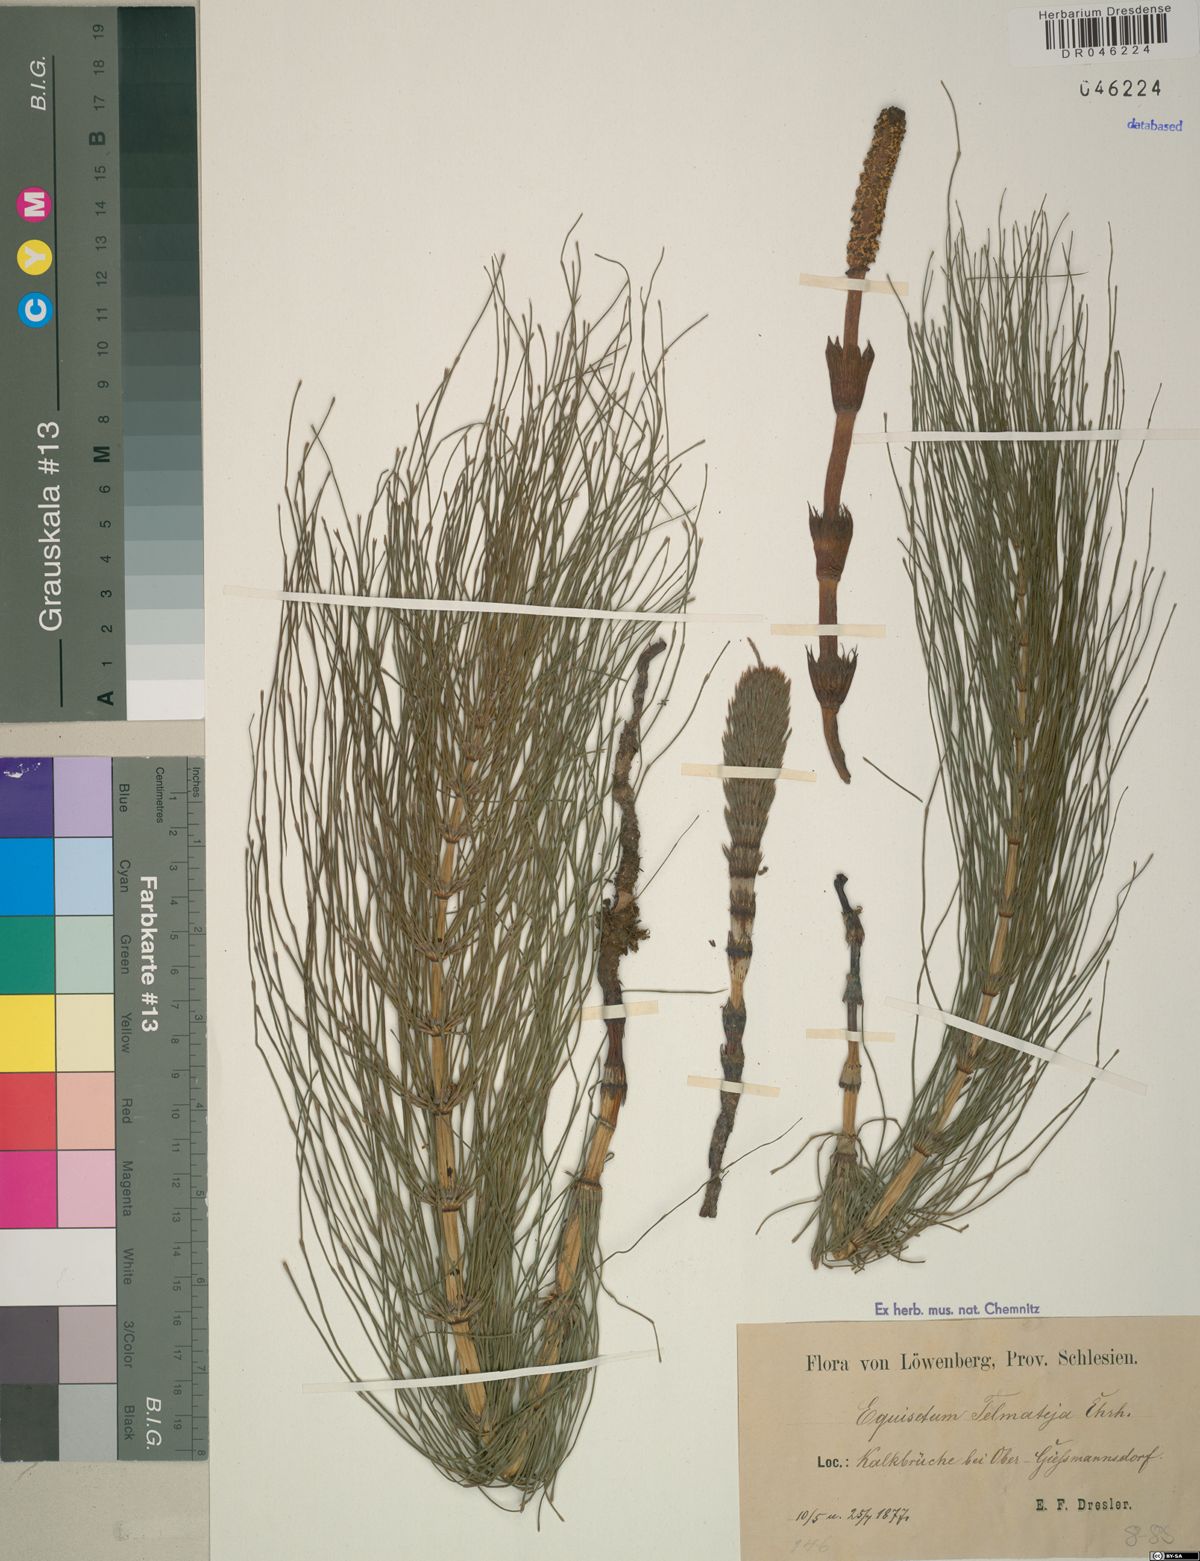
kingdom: Plantae
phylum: Tracheophyta
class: Polypodiopsida
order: Equisetales
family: Equisetaceae
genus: Equisetum
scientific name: Equisetum telmateia
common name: Great horsetail
